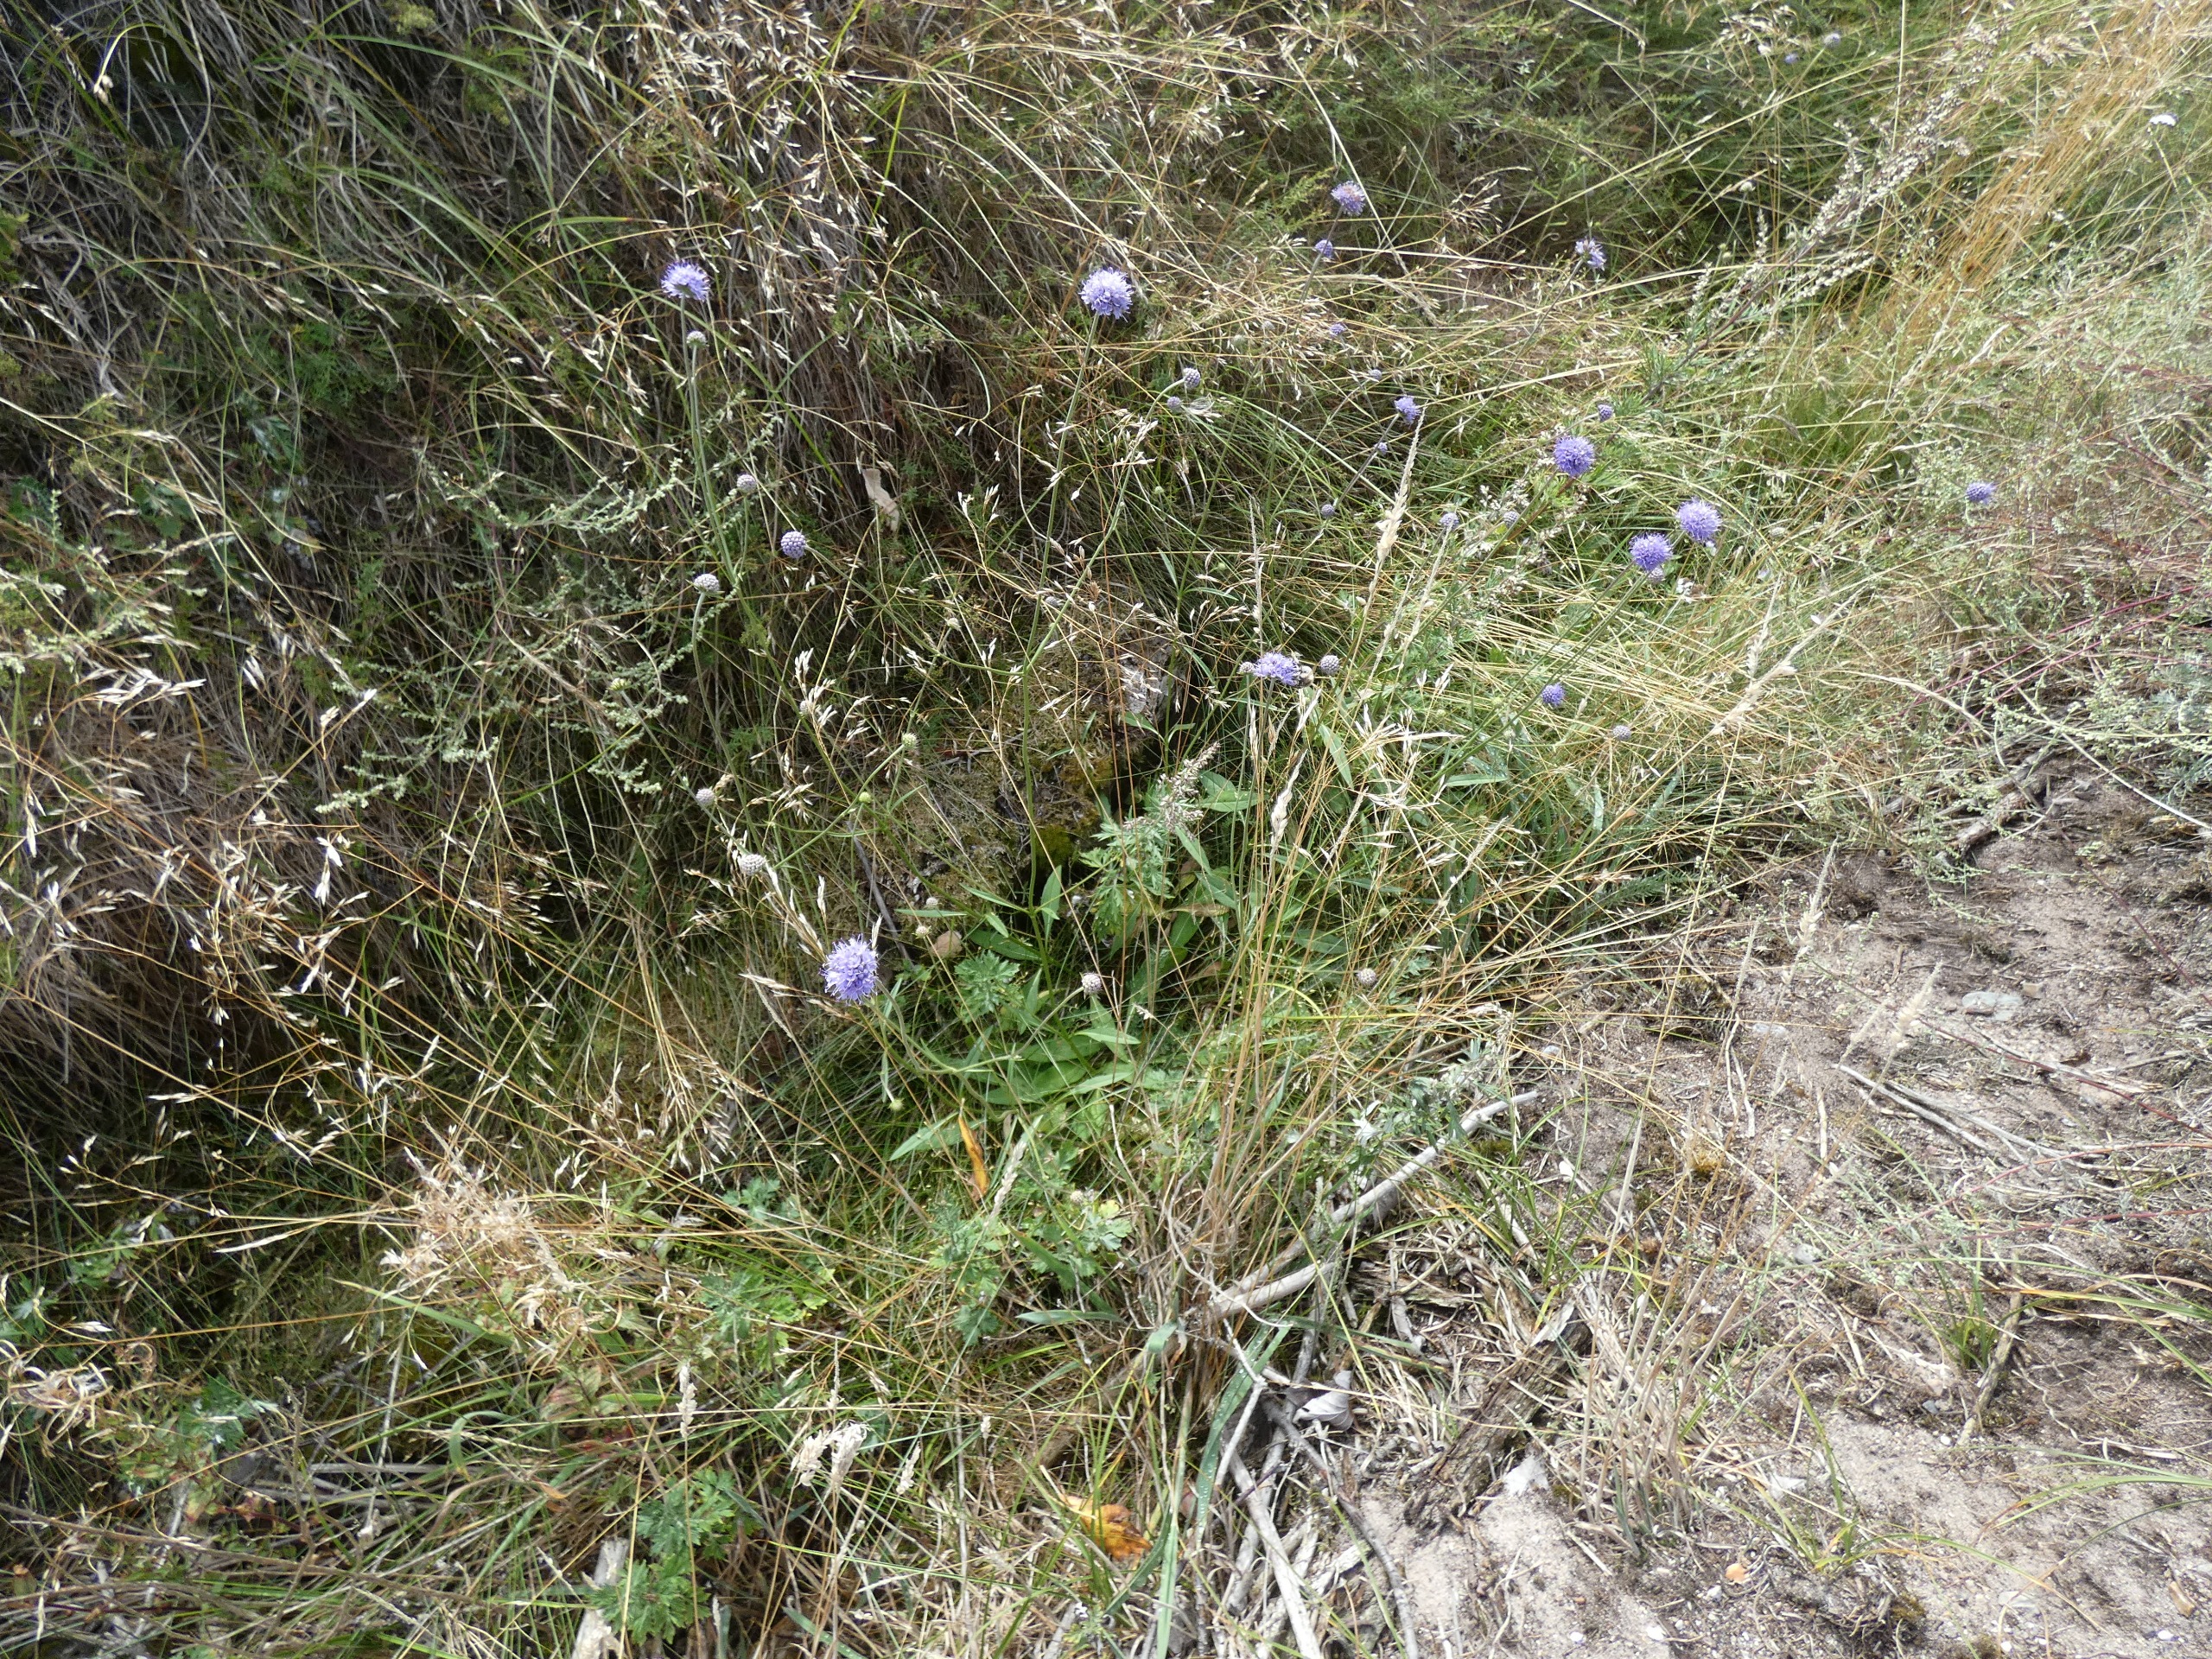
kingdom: Plantae
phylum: Tracheophyta
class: Magnoliopsida
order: Dipsacales
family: Caprifoliaceae
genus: Succisa
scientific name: Succisa pratensis
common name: Djævelsbid
